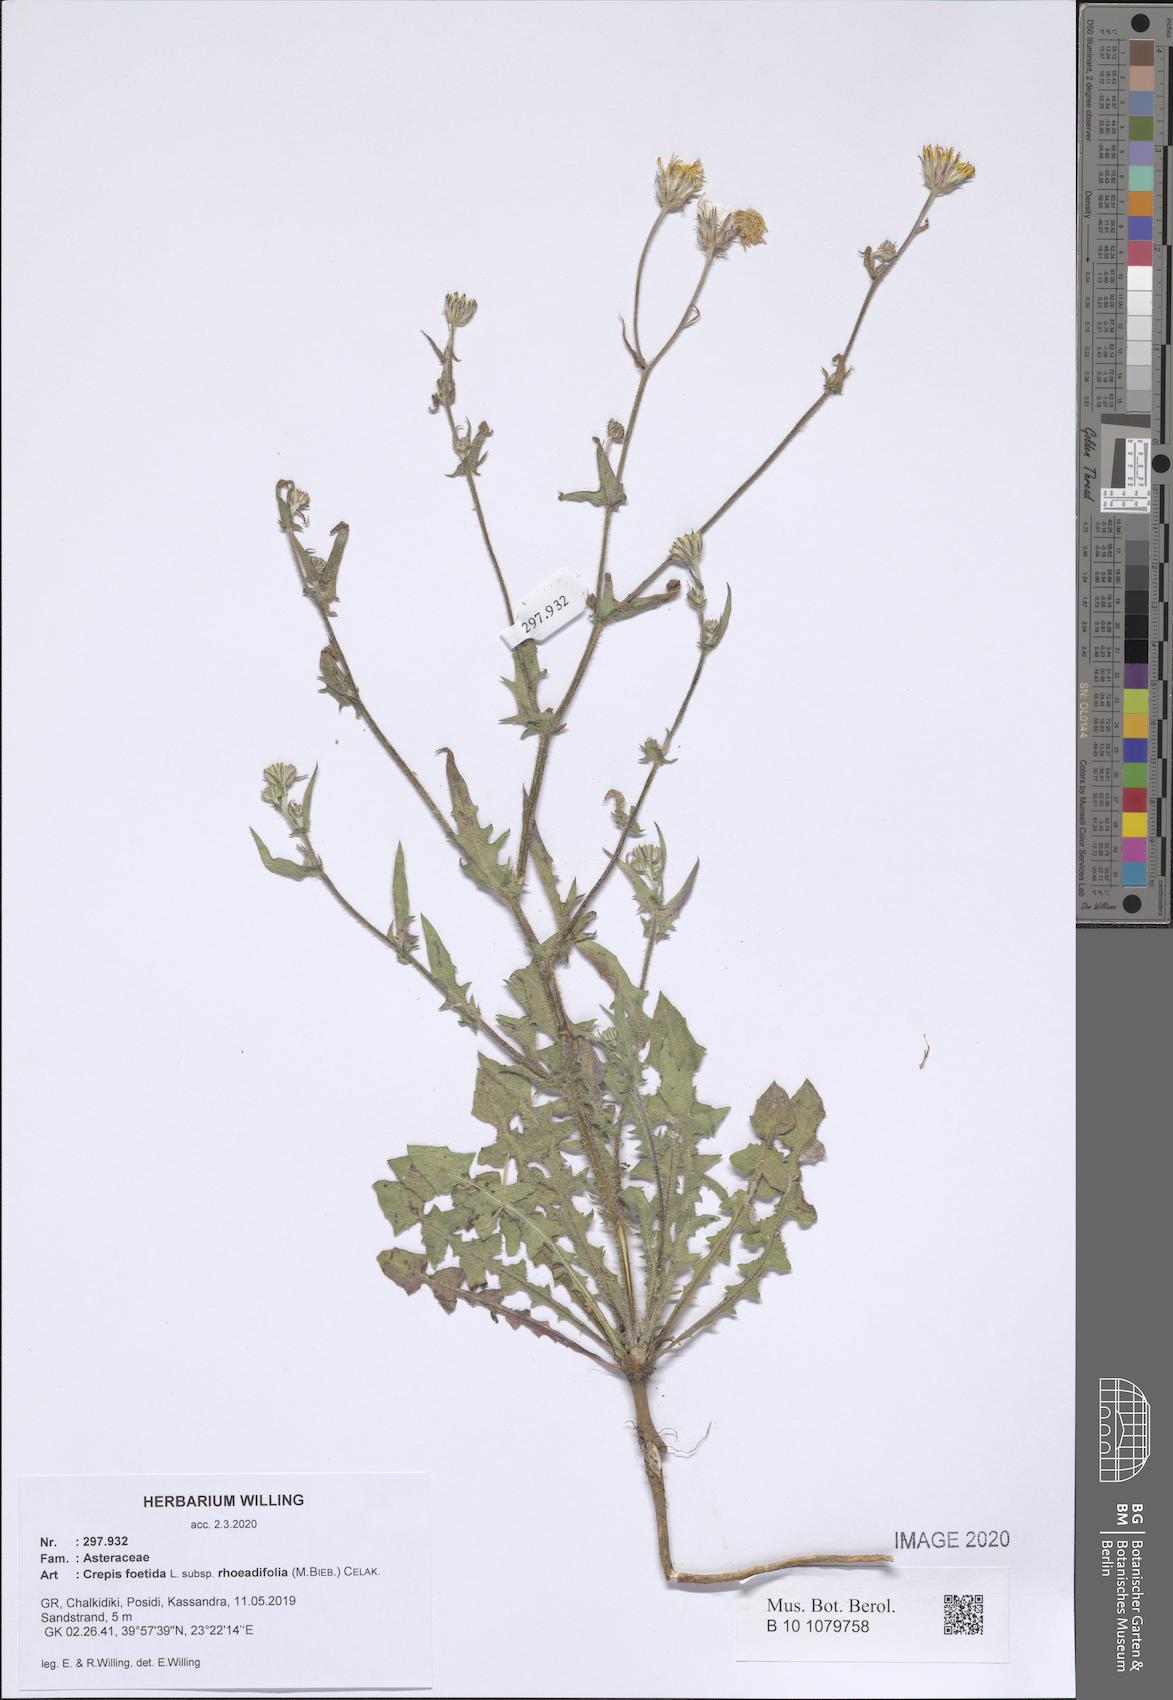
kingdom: Plantae
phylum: Tracheophyta
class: Magnoliopsida
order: Asterales
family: Asteraceae
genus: Crepis
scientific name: Crepis foetida
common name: Stinking hawk's-beard
